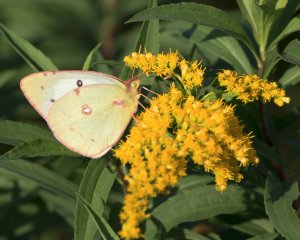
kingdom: Animalia
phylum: Arthropoda
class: Insecta
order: Lepidoptera
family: Pieridae
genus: Colias
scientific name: Colias philodice
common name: Clouded Sulphur
